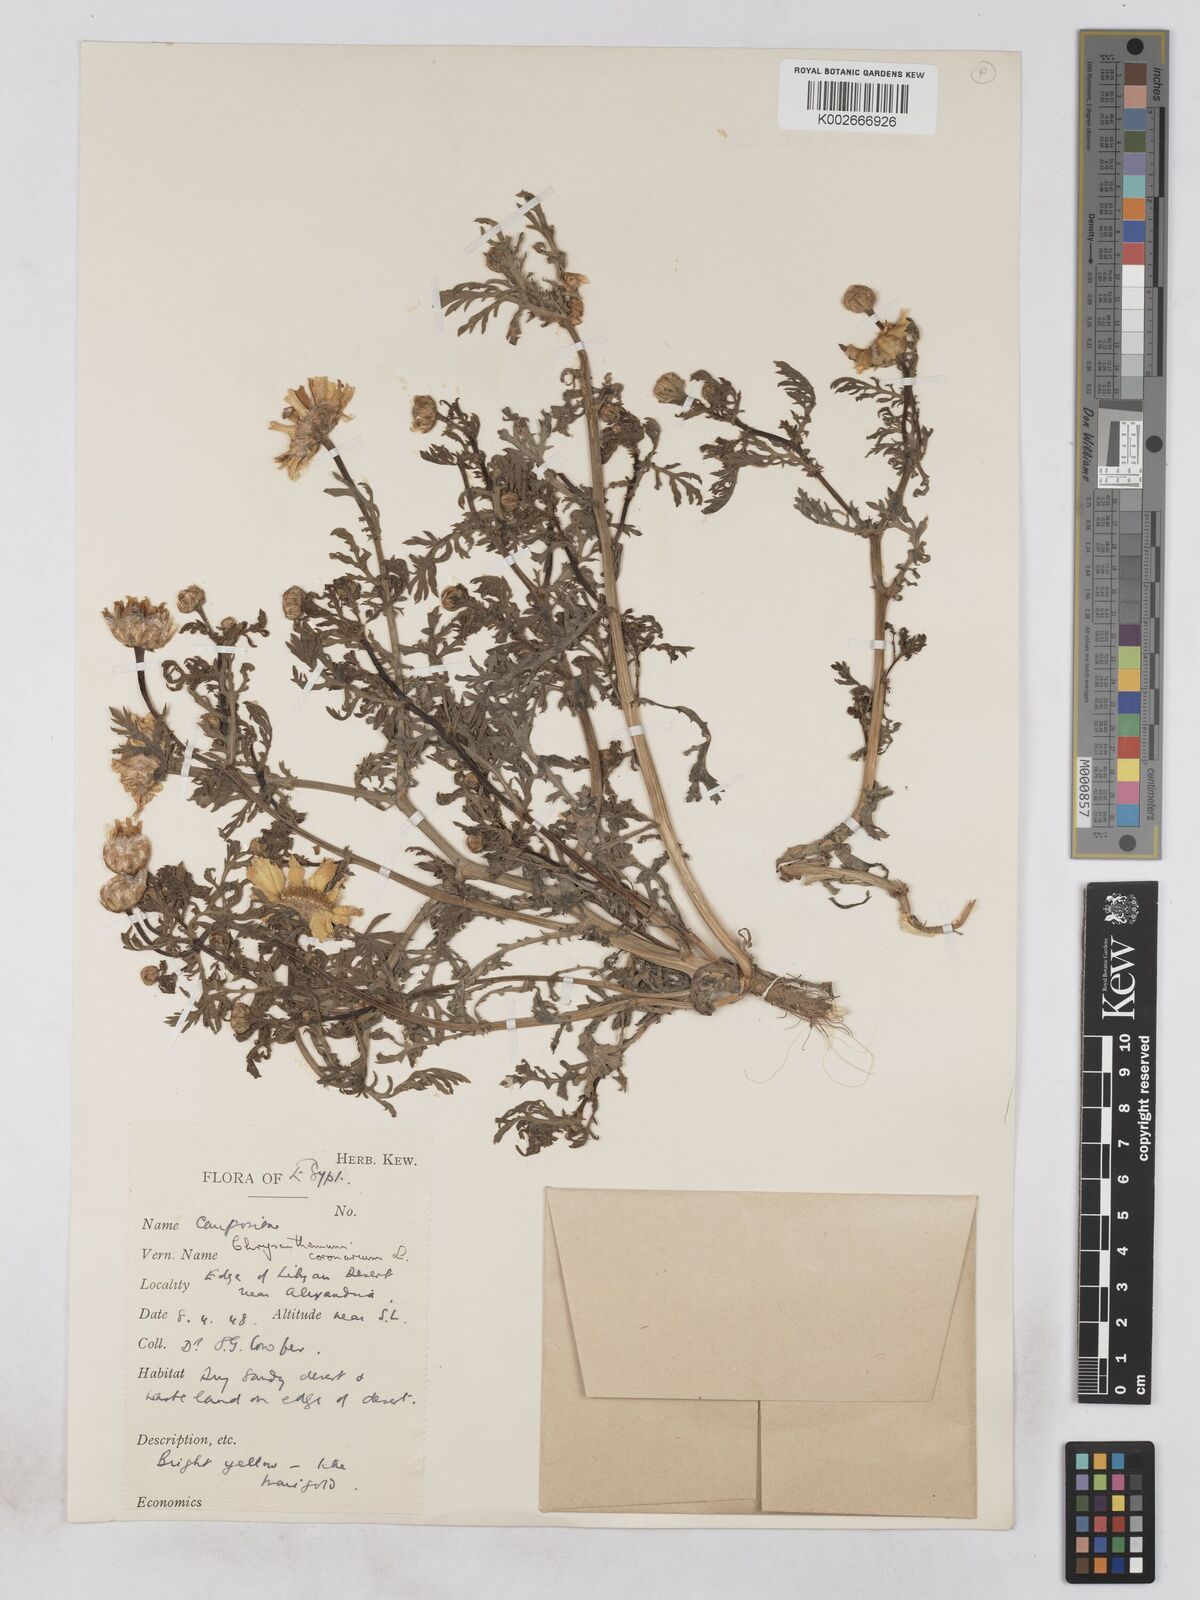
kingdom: Plantae
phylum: Tracheophyta
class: Magnoliopsida
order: Asterales
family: Asteraceae
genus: Glebionis
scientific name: Glebionis coronaria
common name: Crowndaisy
